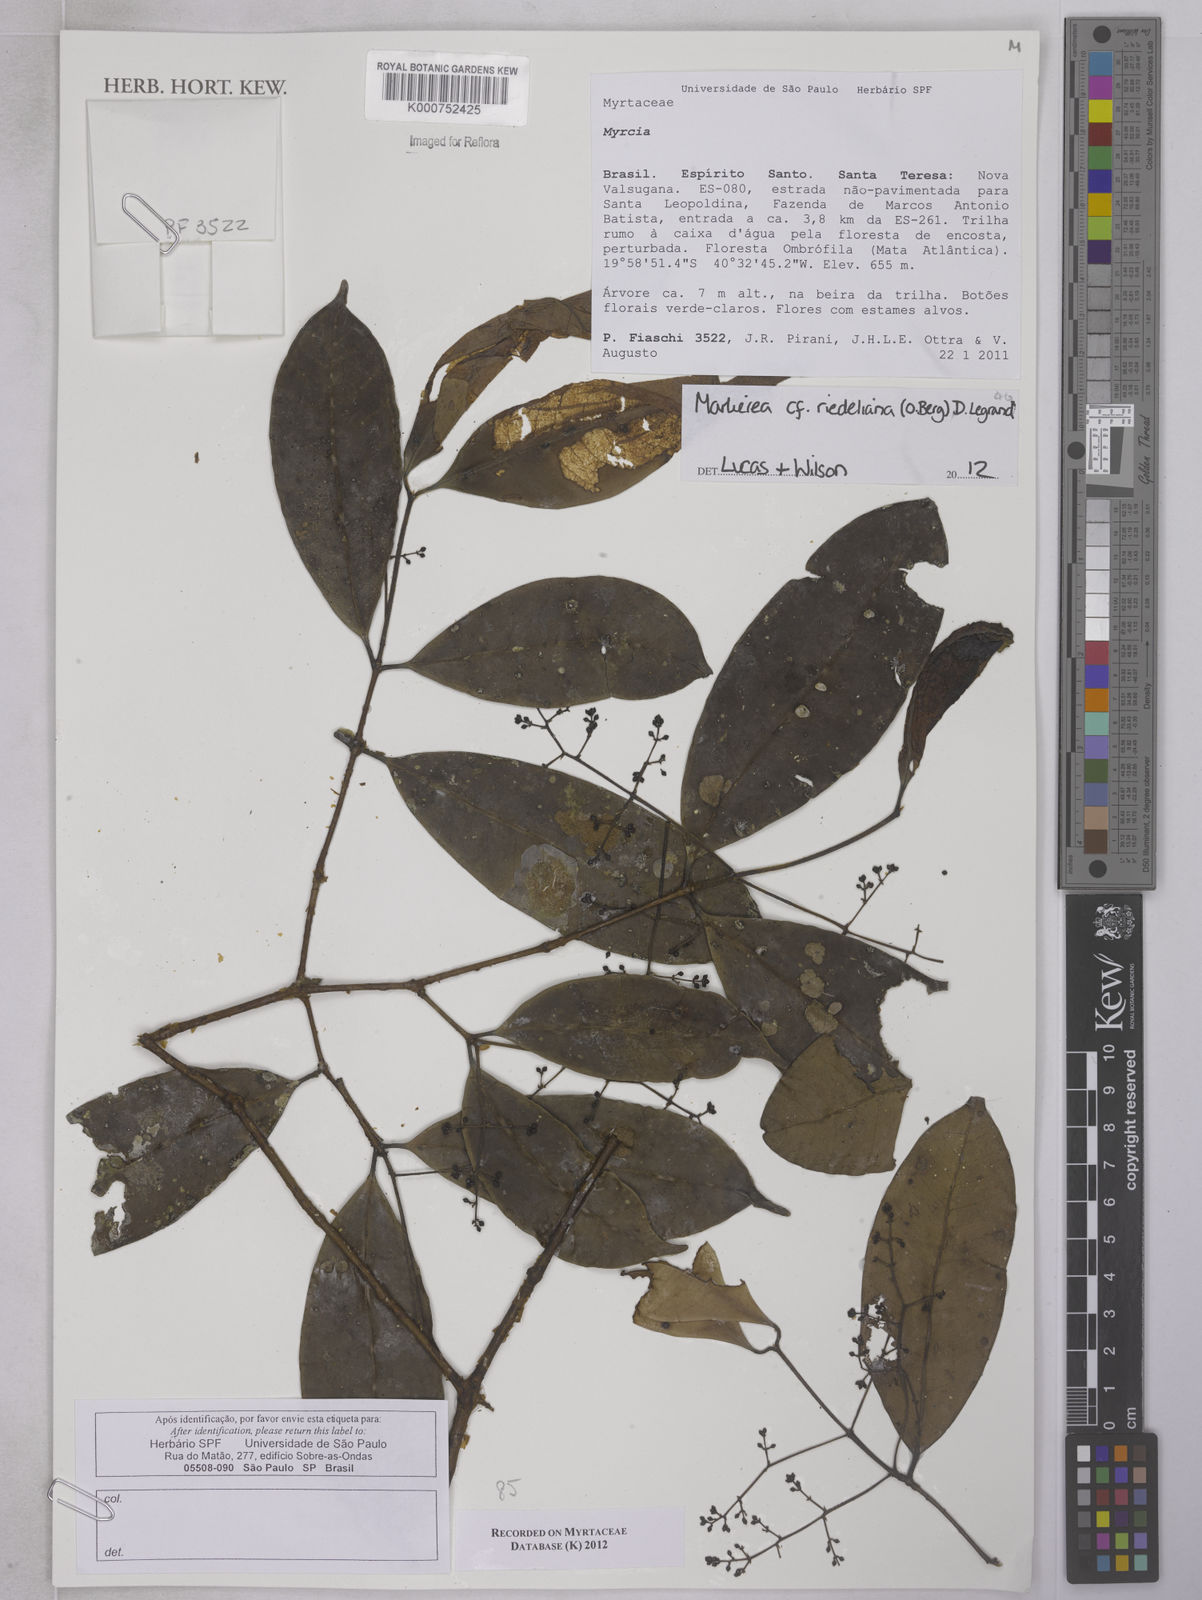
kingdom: Plantae
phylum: Tracheophyta
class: Magnoliopsida
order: Myrtales
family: Myrtaceae
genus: Myrcia
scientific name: Myrcia
